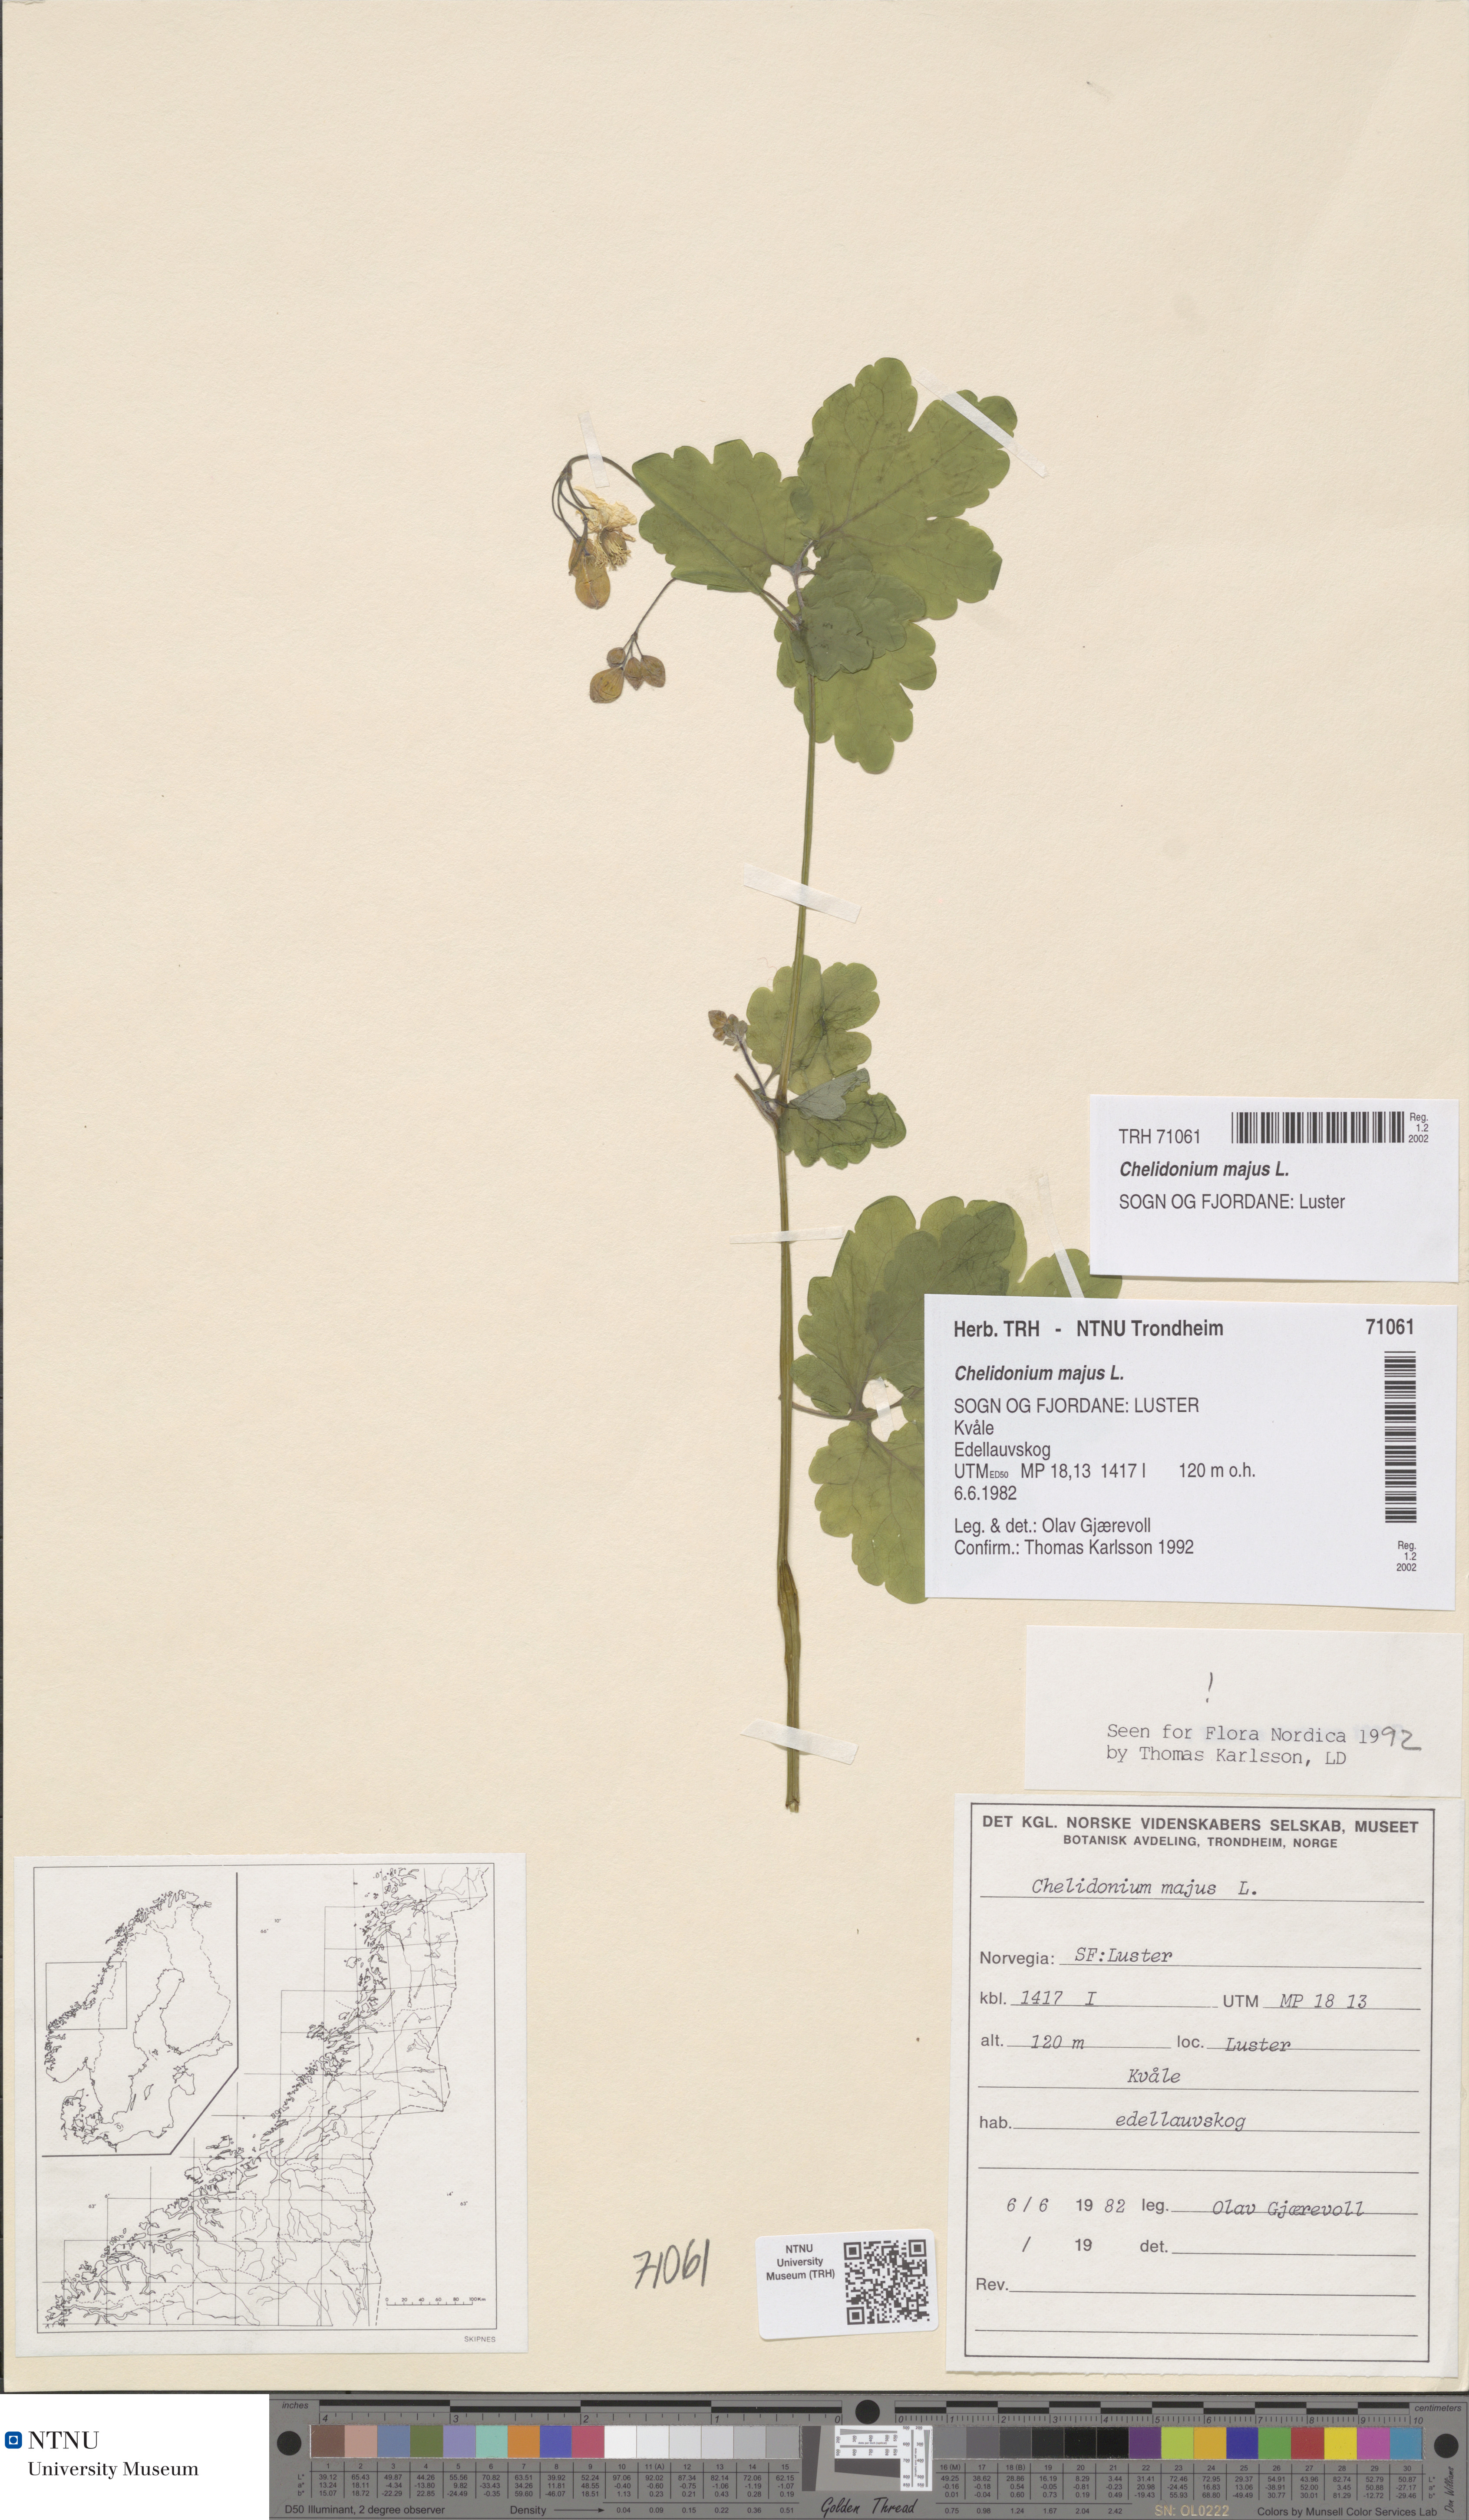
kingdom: Plantae
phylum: Tracheophyta
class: Magnoliopsida
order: Ranunculales
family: Papaveraceae
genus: Chelidonium
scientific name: Chelidonium majus
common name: Greater celandine
